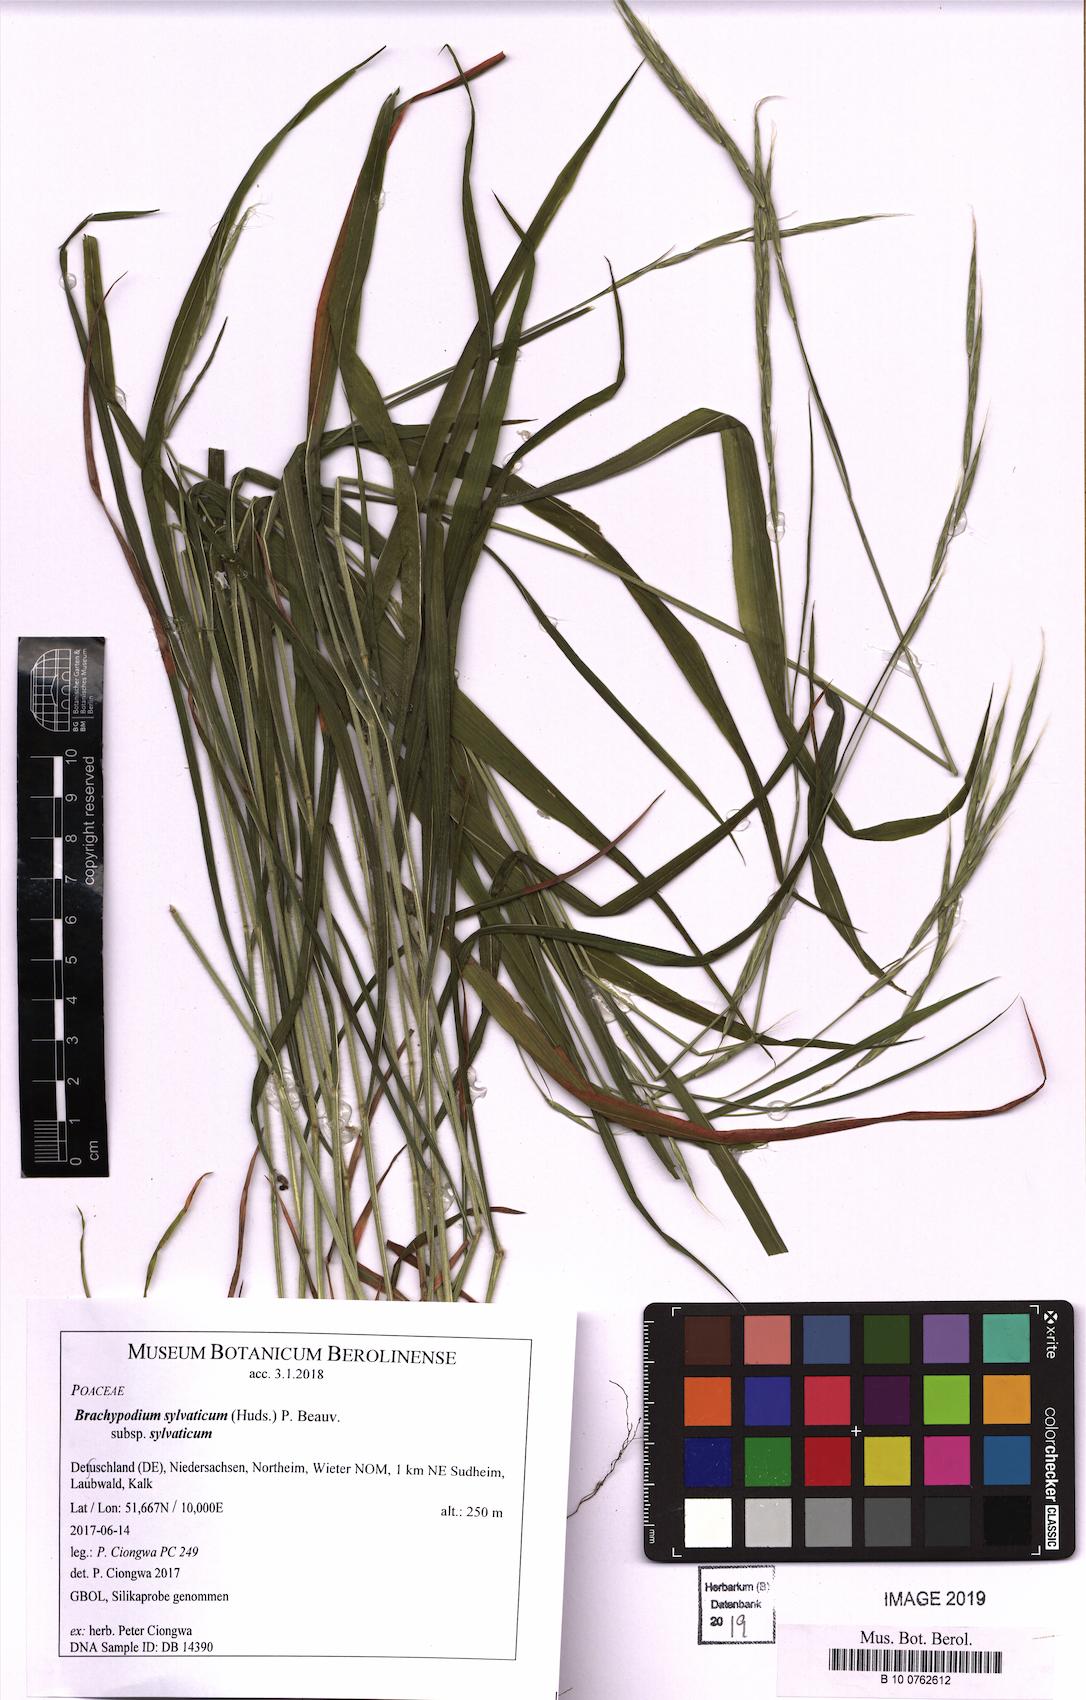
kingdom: Plantae
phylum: Tracheophyta
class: Liliopsida
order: Poales
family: Poaceae
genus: Brachypodium
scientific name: Brachypodium sylvaticum
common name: False-brome
